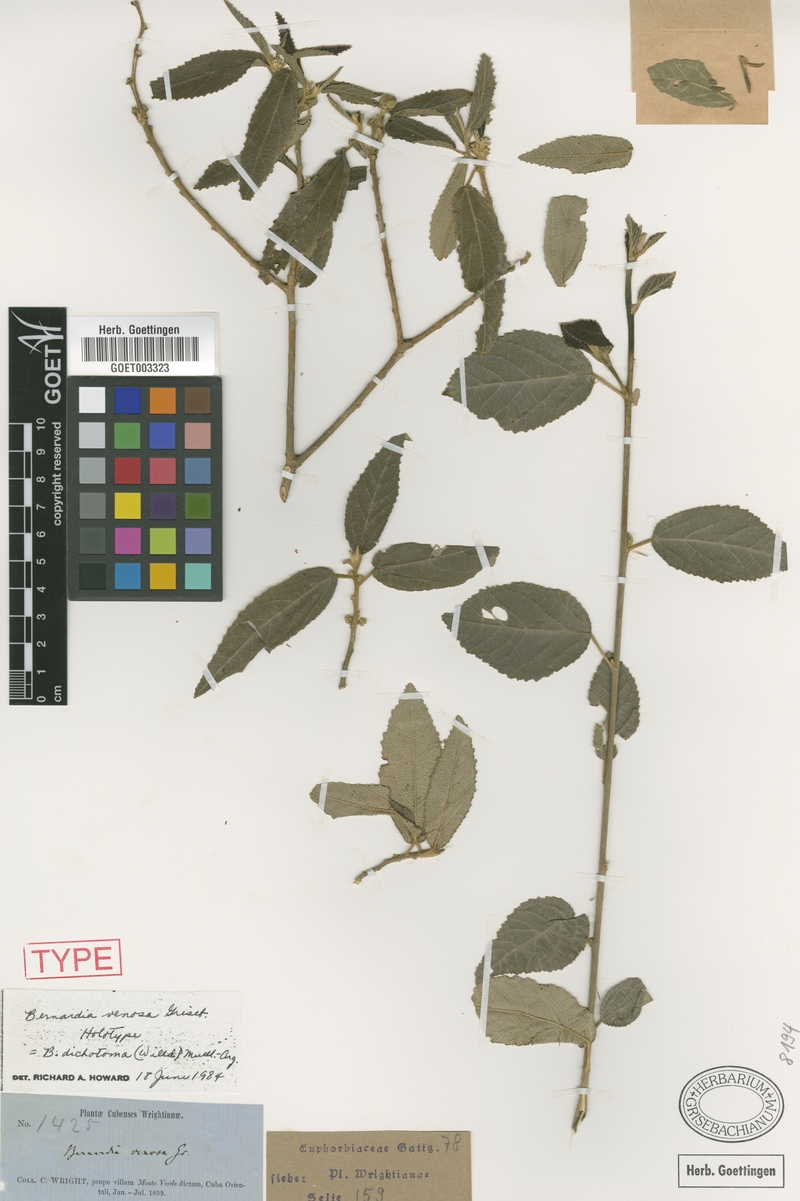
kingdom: Plantae
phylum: Tracheophyta
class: Magnoliopsida
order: Malpighiales
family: Euphorbiaceae
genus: Bernardia
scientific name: Bernardia dichotoma
